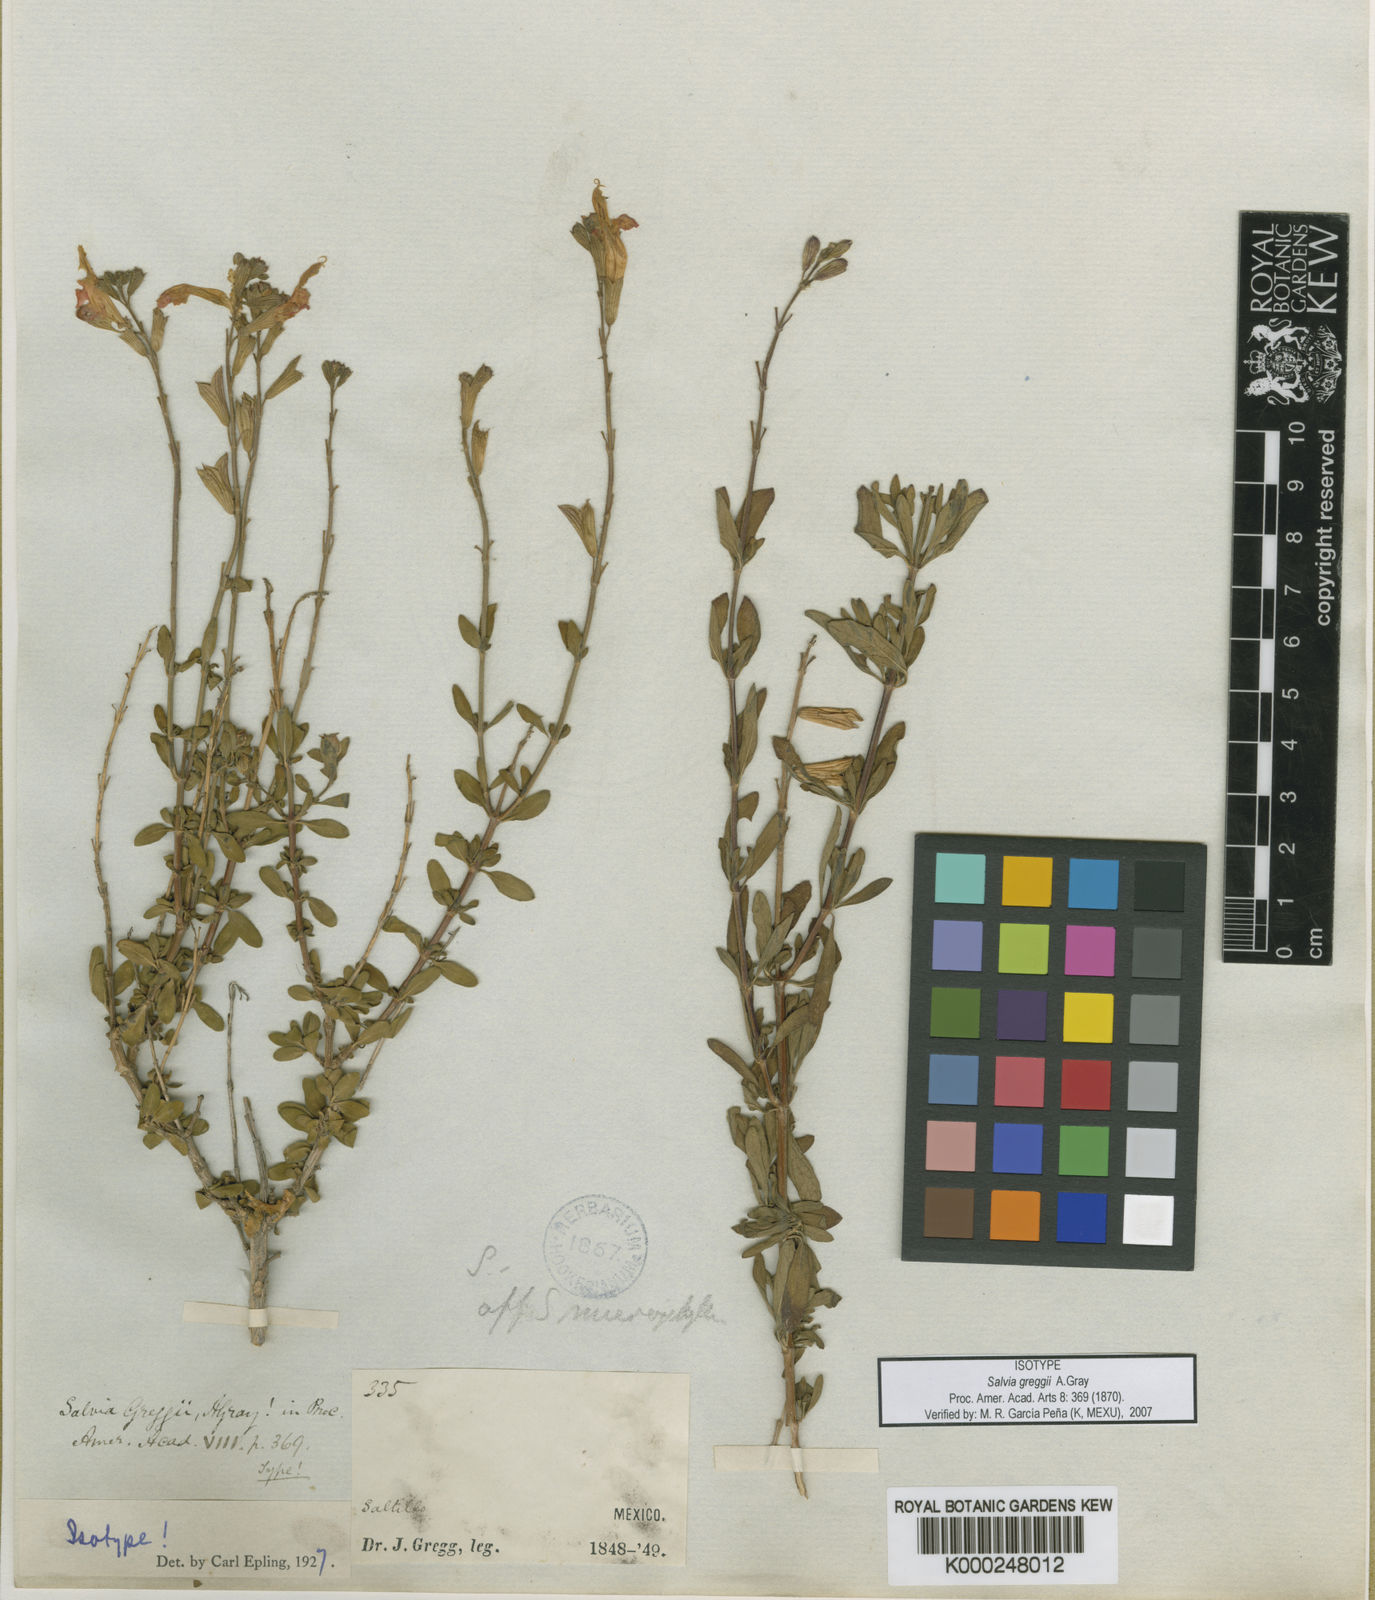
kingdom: Plantae
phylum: Tracheophyta
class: Magnoliopsida
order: Lamiales
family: Lamiaceae
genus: Salvia
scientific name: Salvia greggii
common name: Autumn sage
